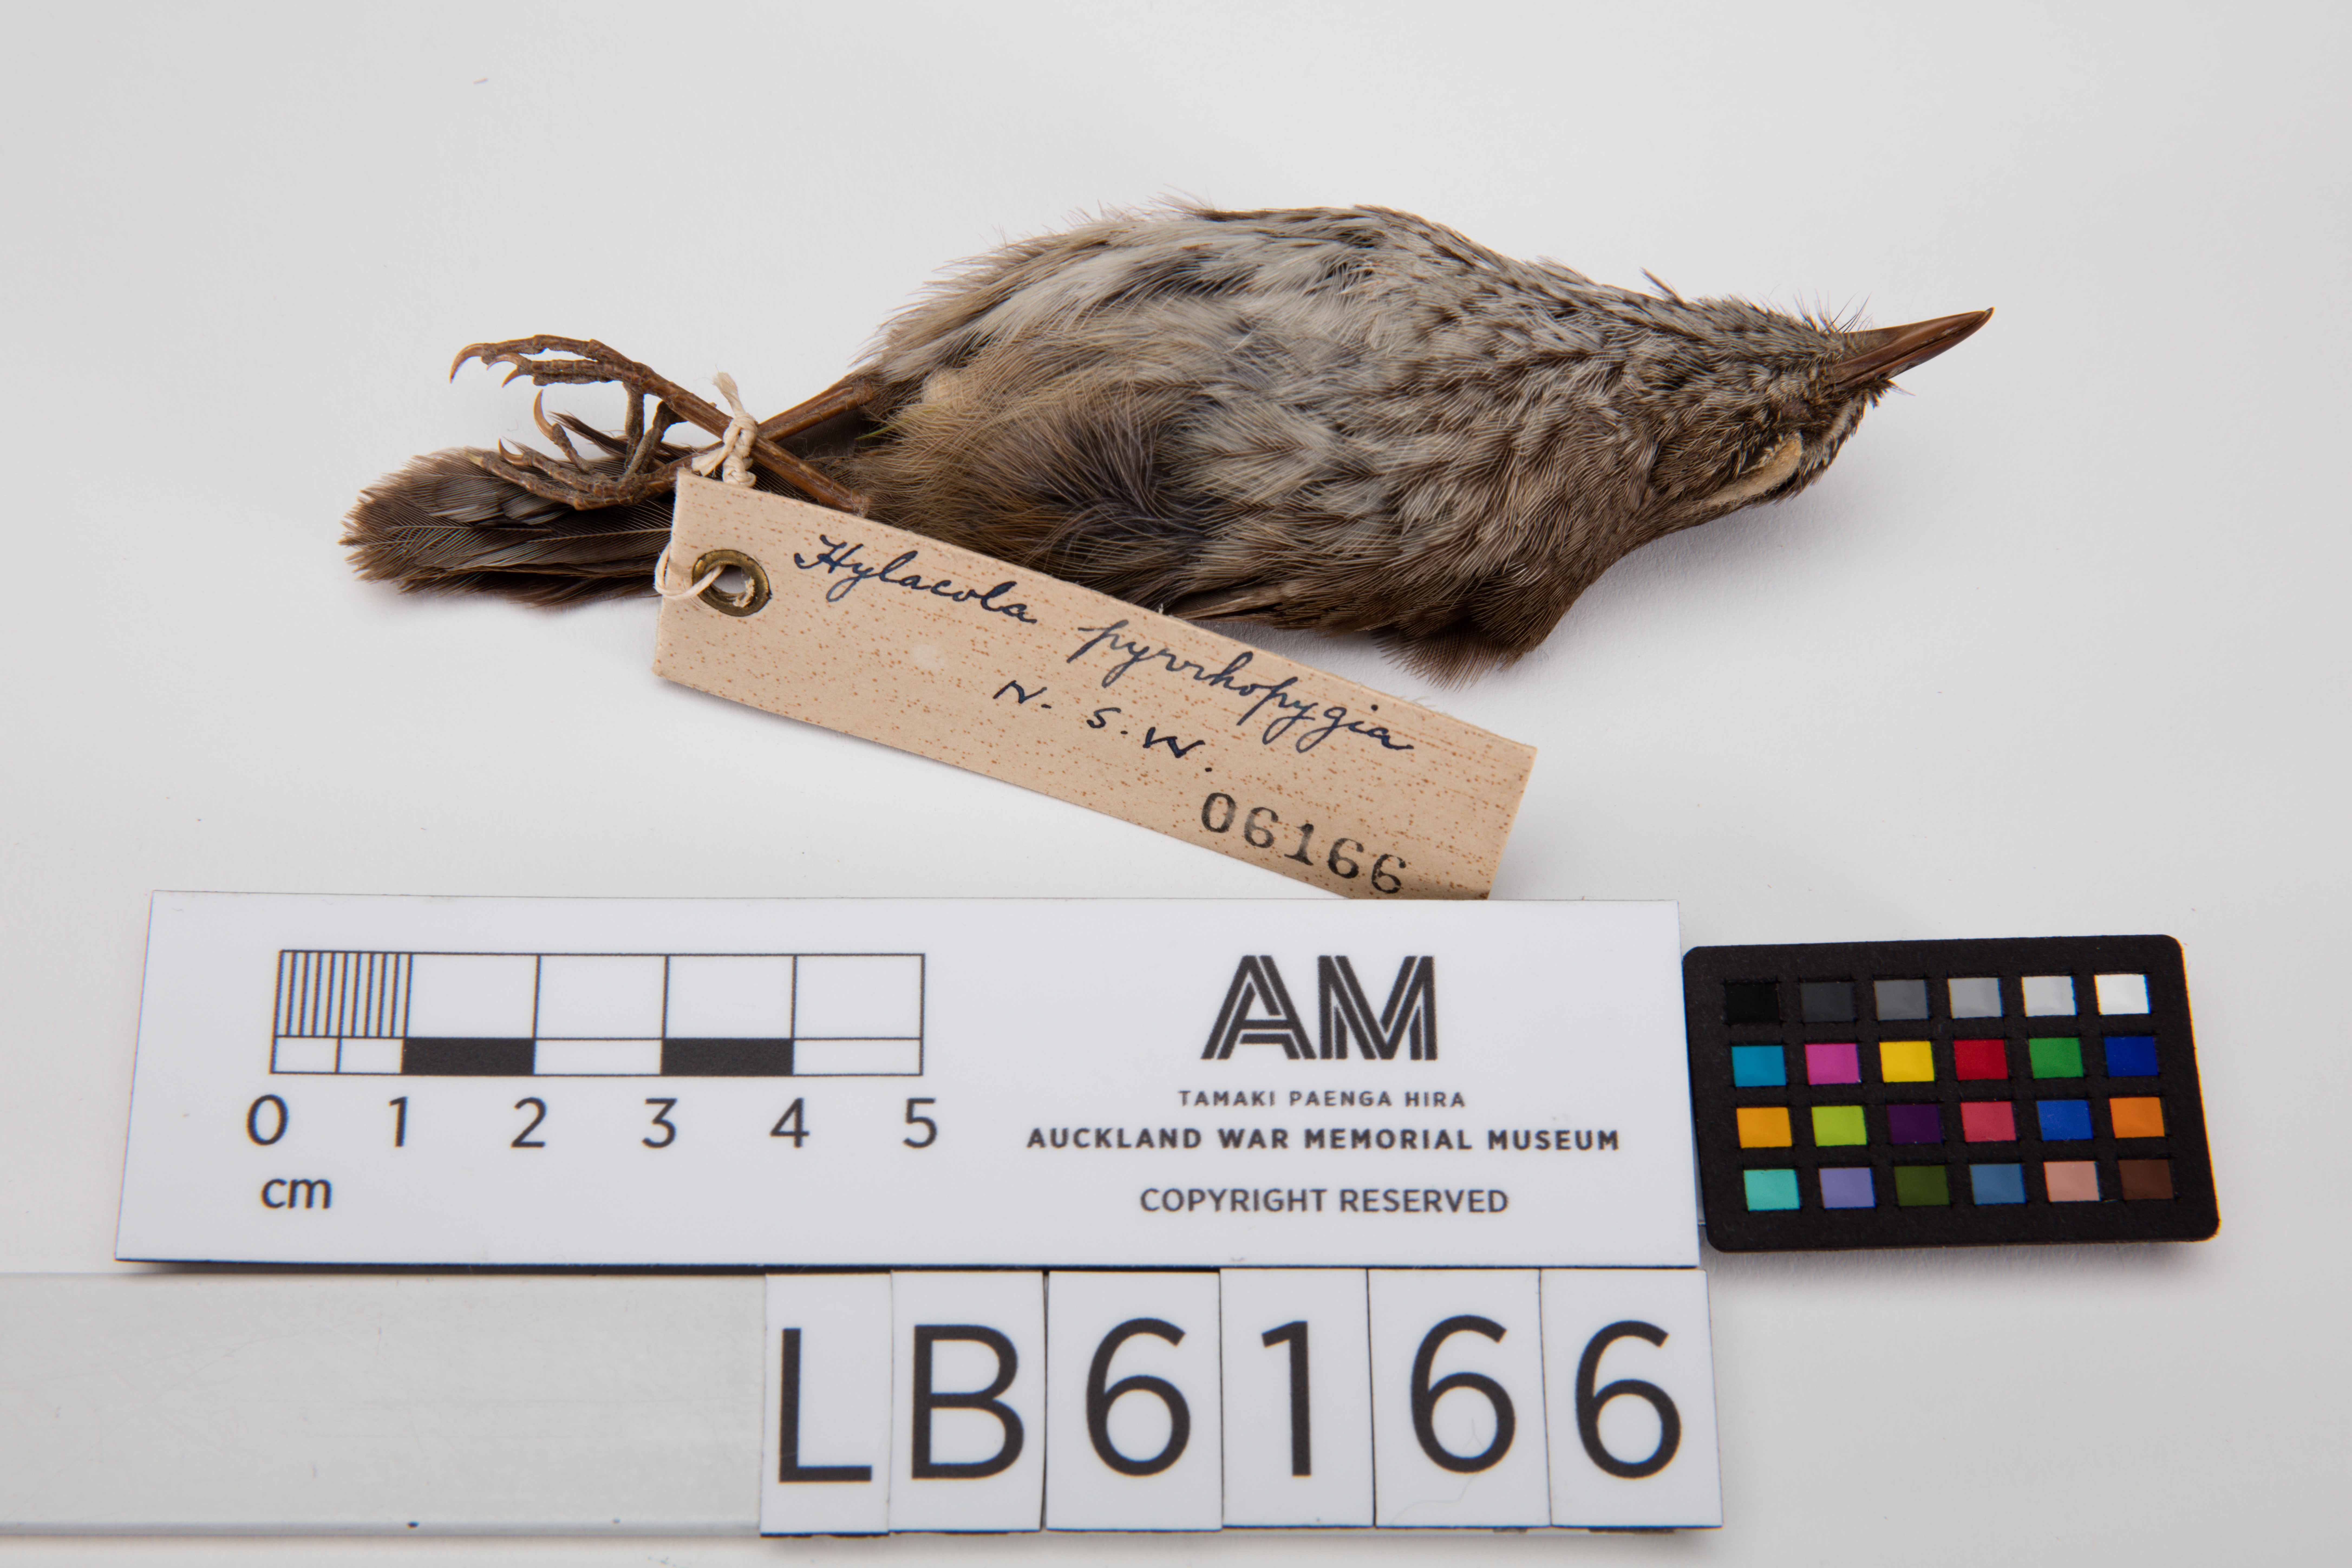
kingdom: Animalia
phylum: Chordata
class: Aves
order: Passeriformes
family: Acanthizidae
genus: Calamanthus
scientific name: Calamanthus pyrrhopygius
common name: Chestnut-rumped heathwren
